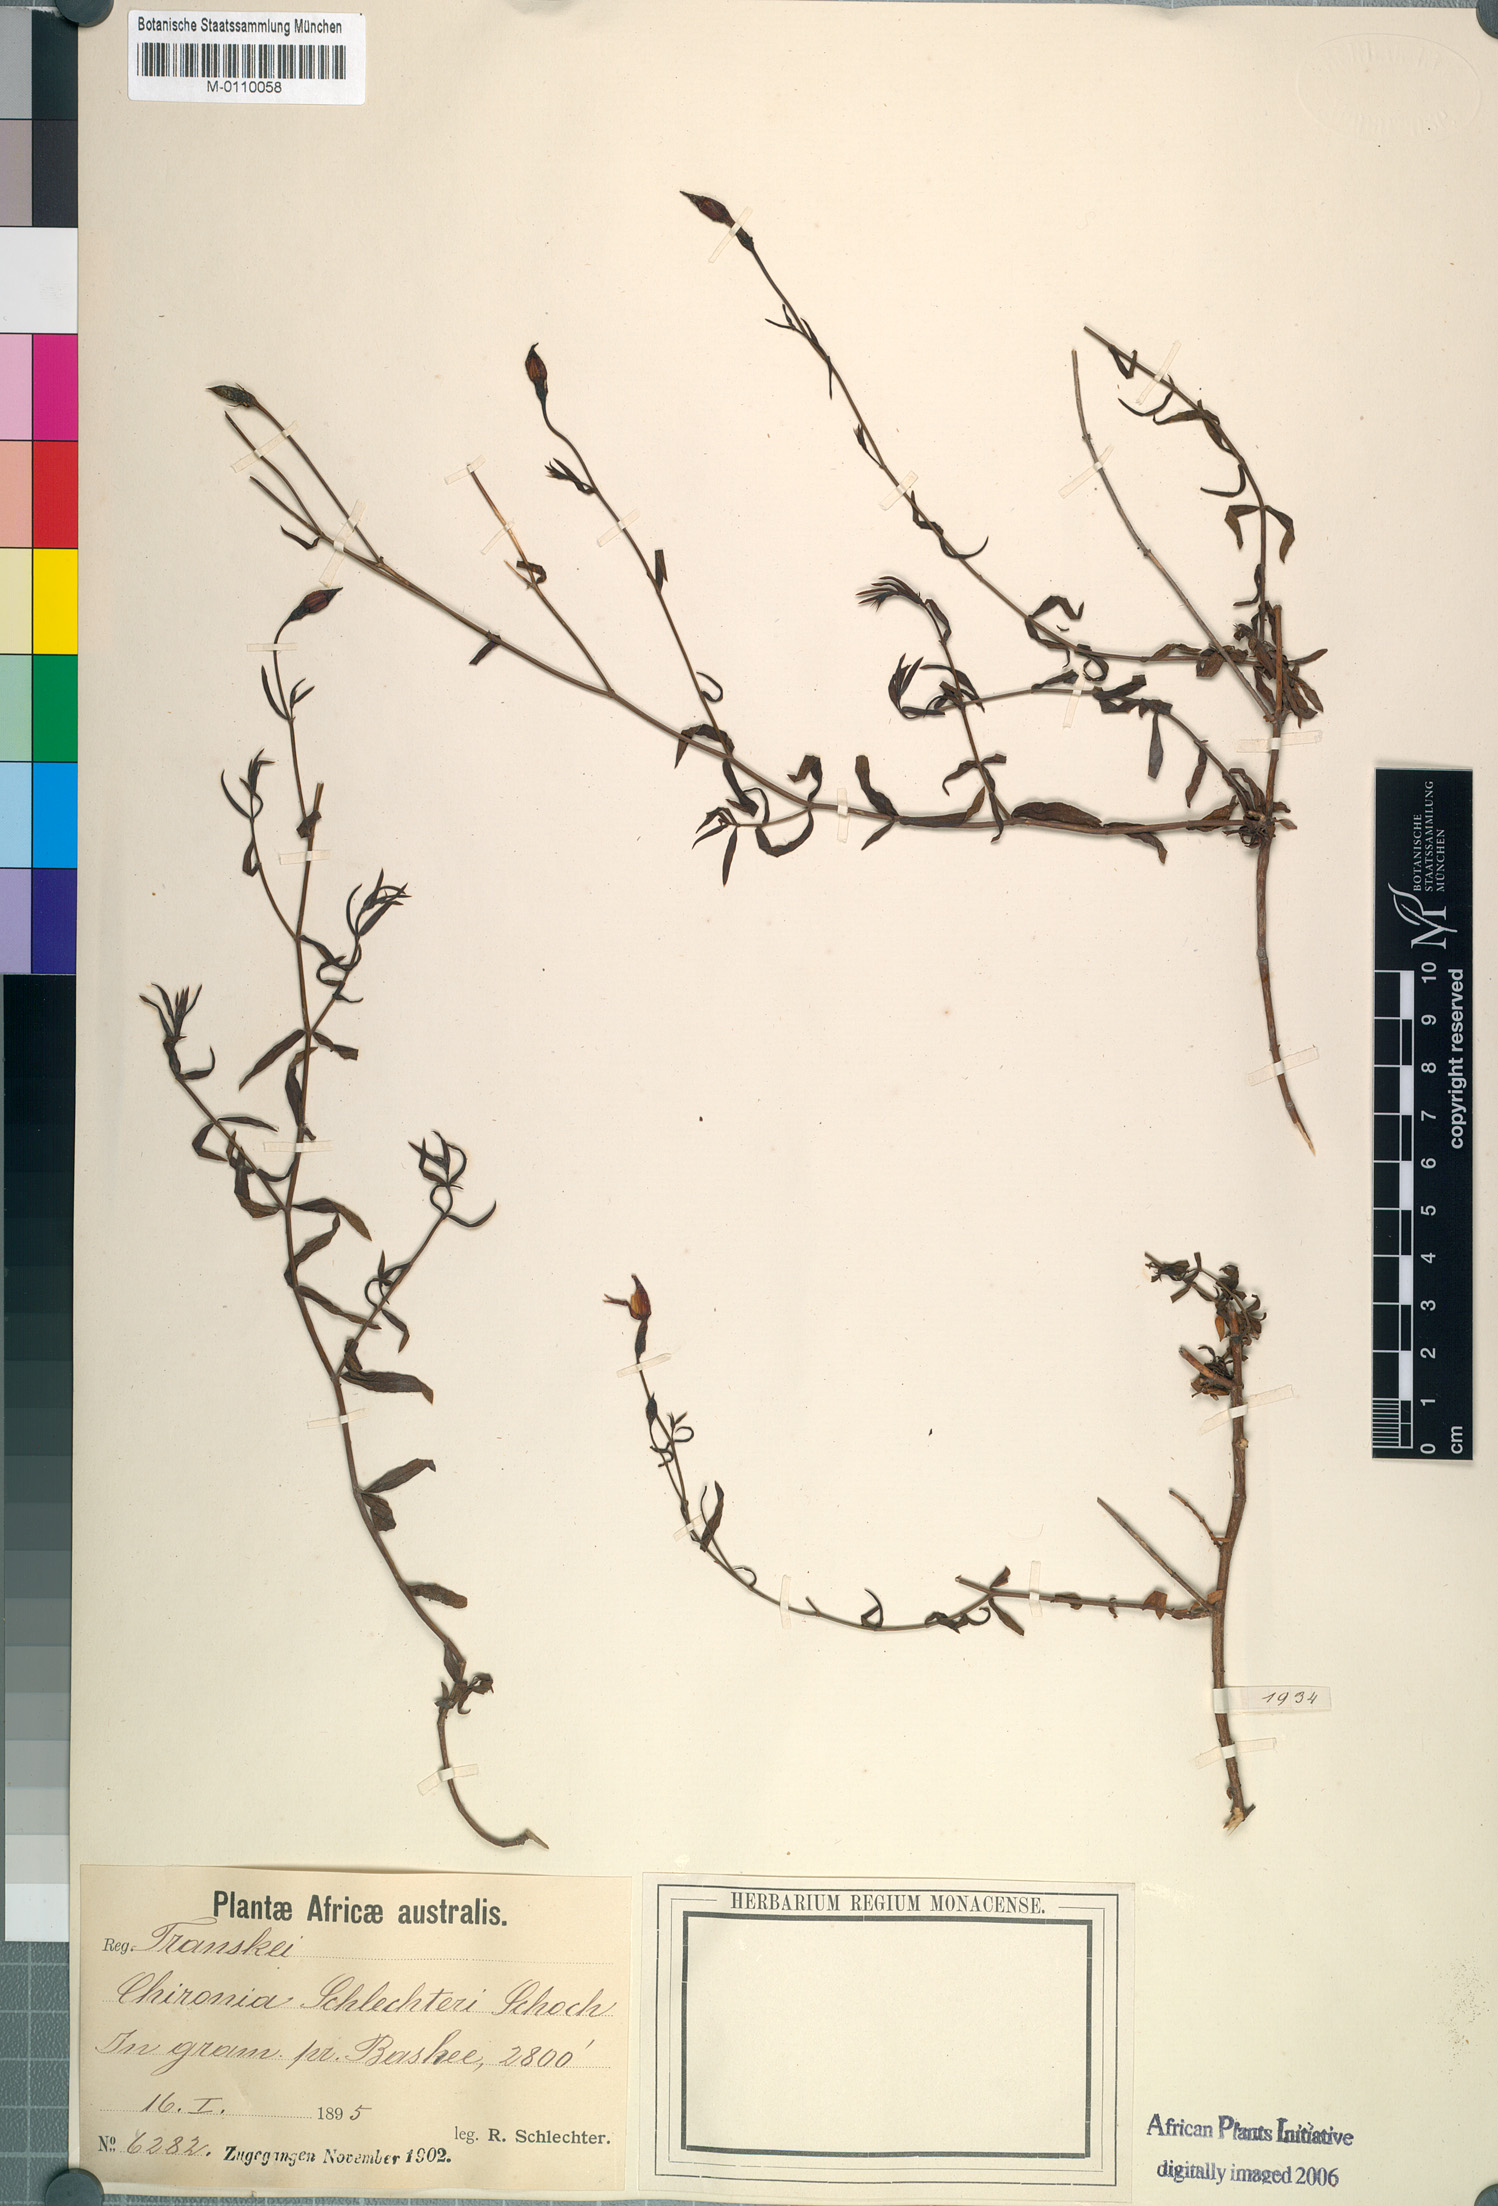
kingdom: Plantae
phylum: Tracheophyta
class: Magnoliopsida
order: Gentianales
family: Gentianaceae
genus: Chironia
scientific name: Chironia laxa
